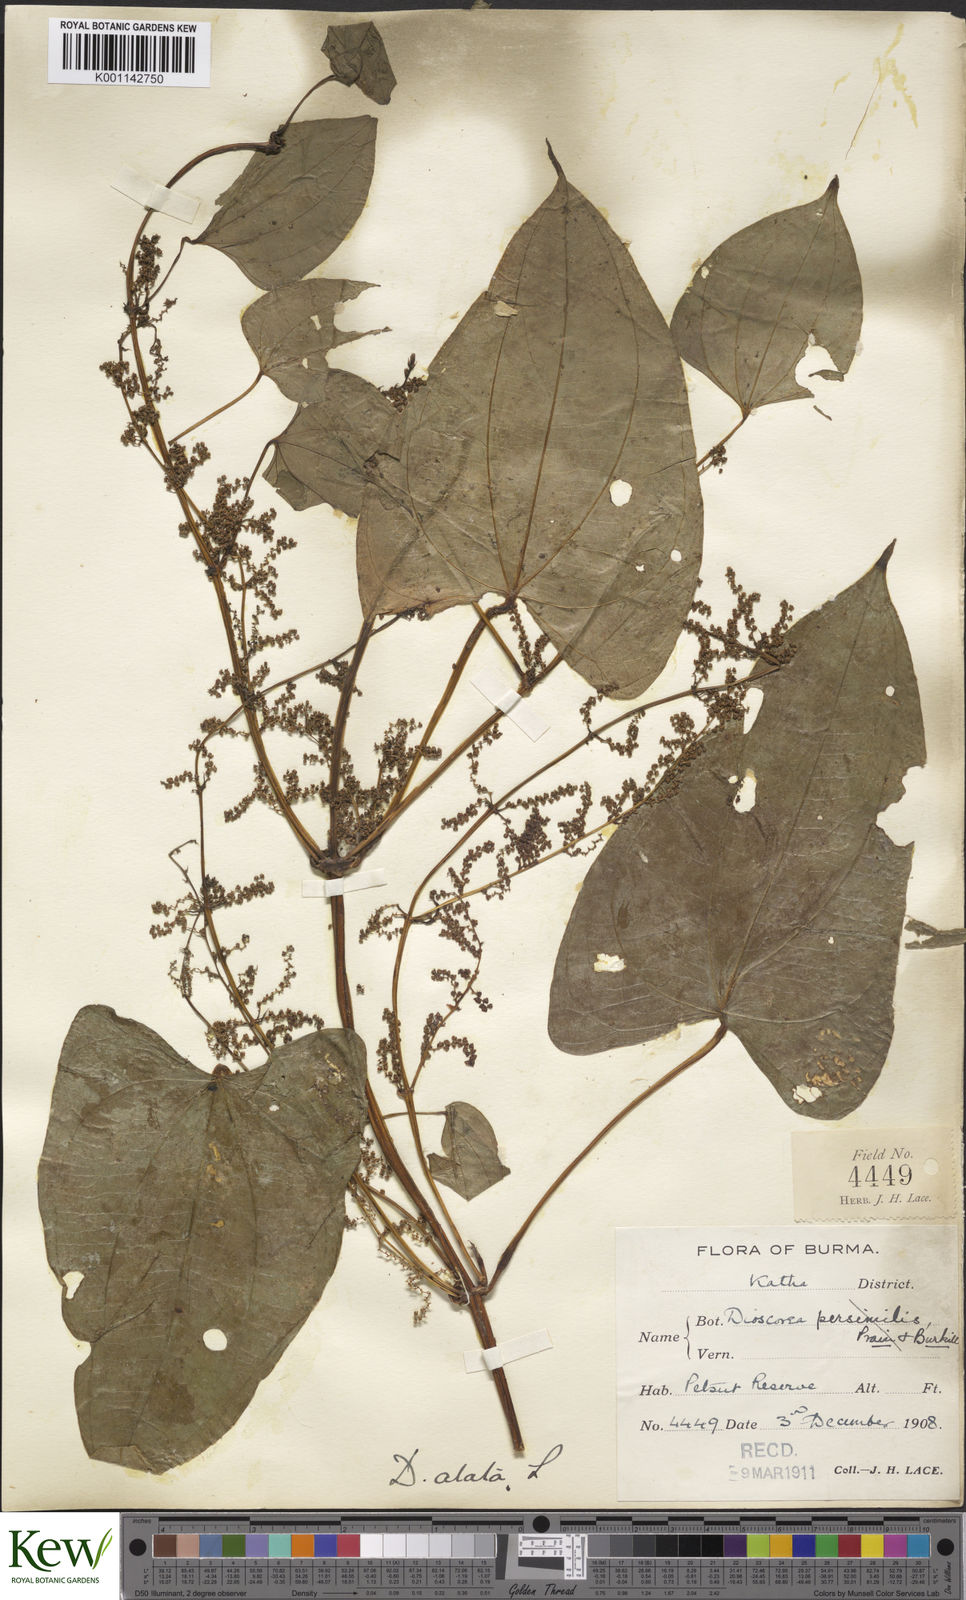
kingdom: Plantae
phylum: Tracheophyta
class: Liliopsida
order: Dioscoreales
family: Dioscoreaceae
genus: Dioscorea
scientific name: Dioscorea alata
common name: Water yam
